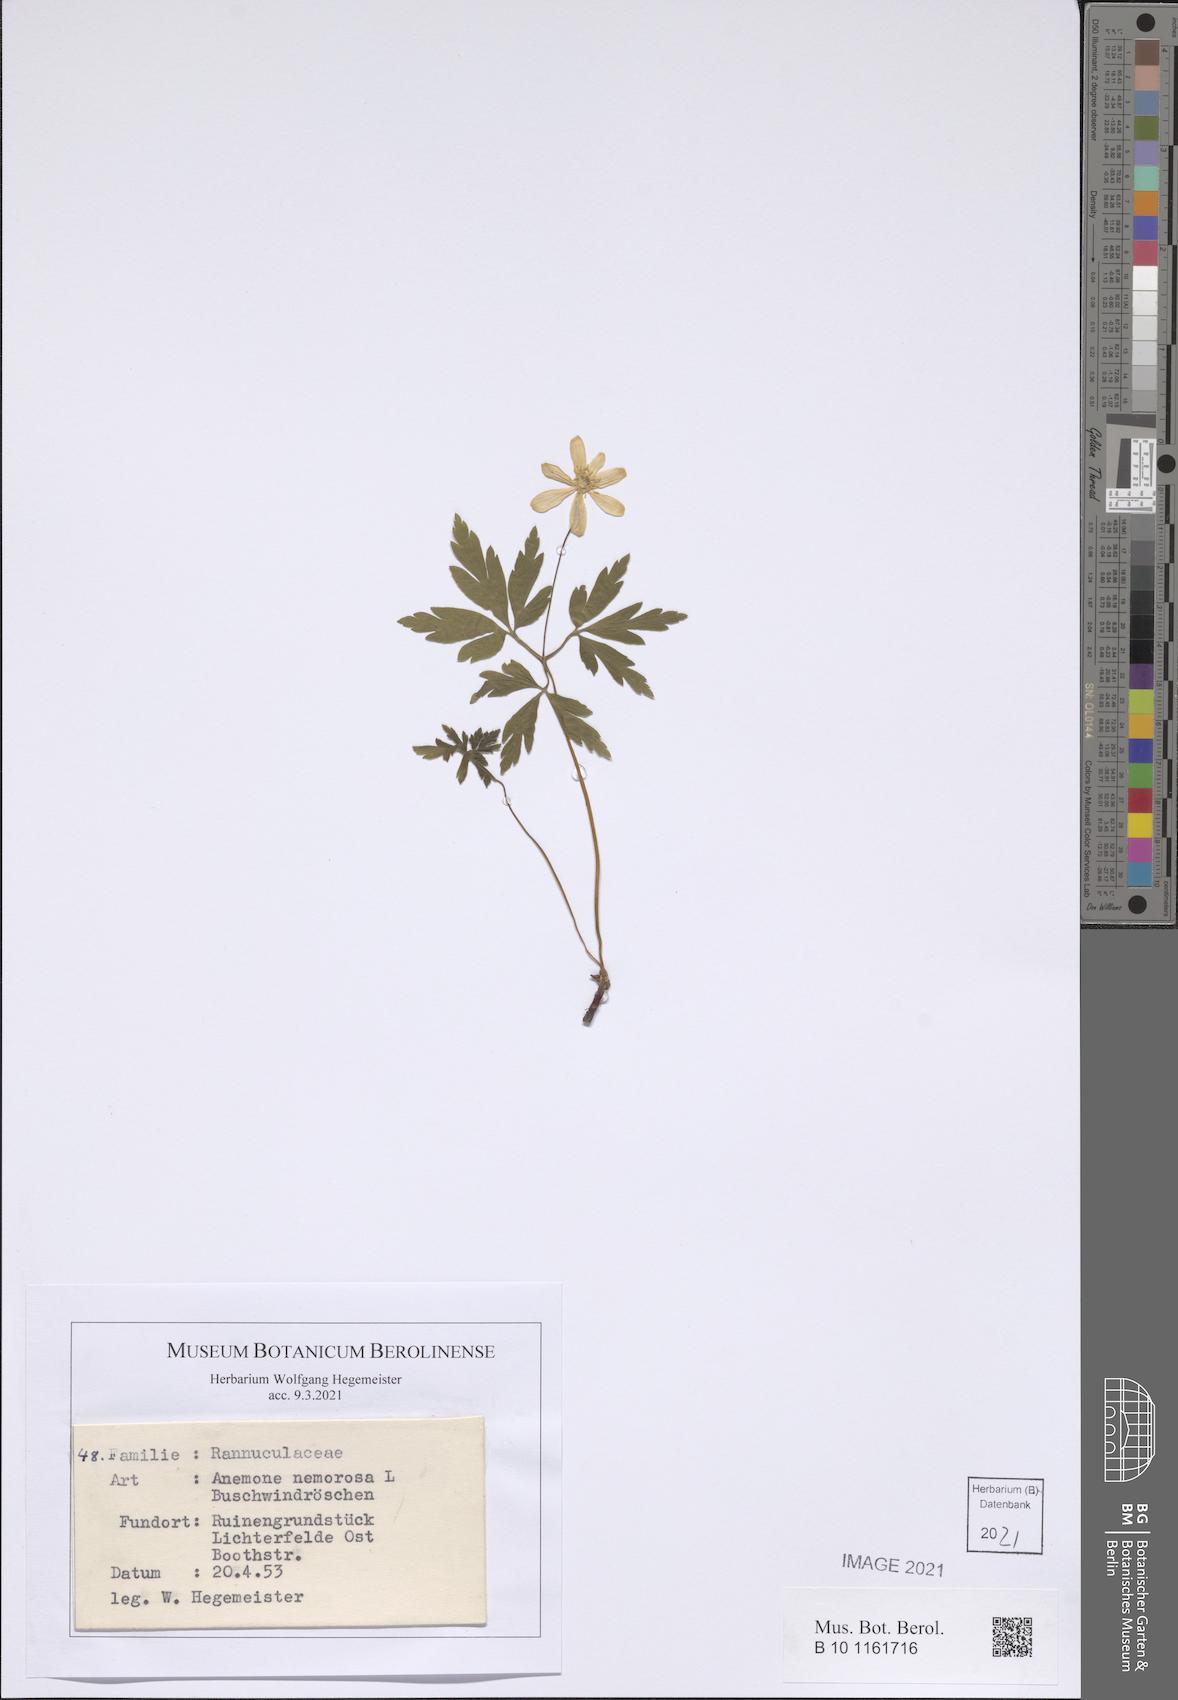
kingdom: Plantae
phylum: Tracheophyta
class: Magnoliopsida
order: Ranunculales
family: Ranunculaceae
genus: Anemone
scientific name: Anemone nemorosa
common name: Wood anemone
